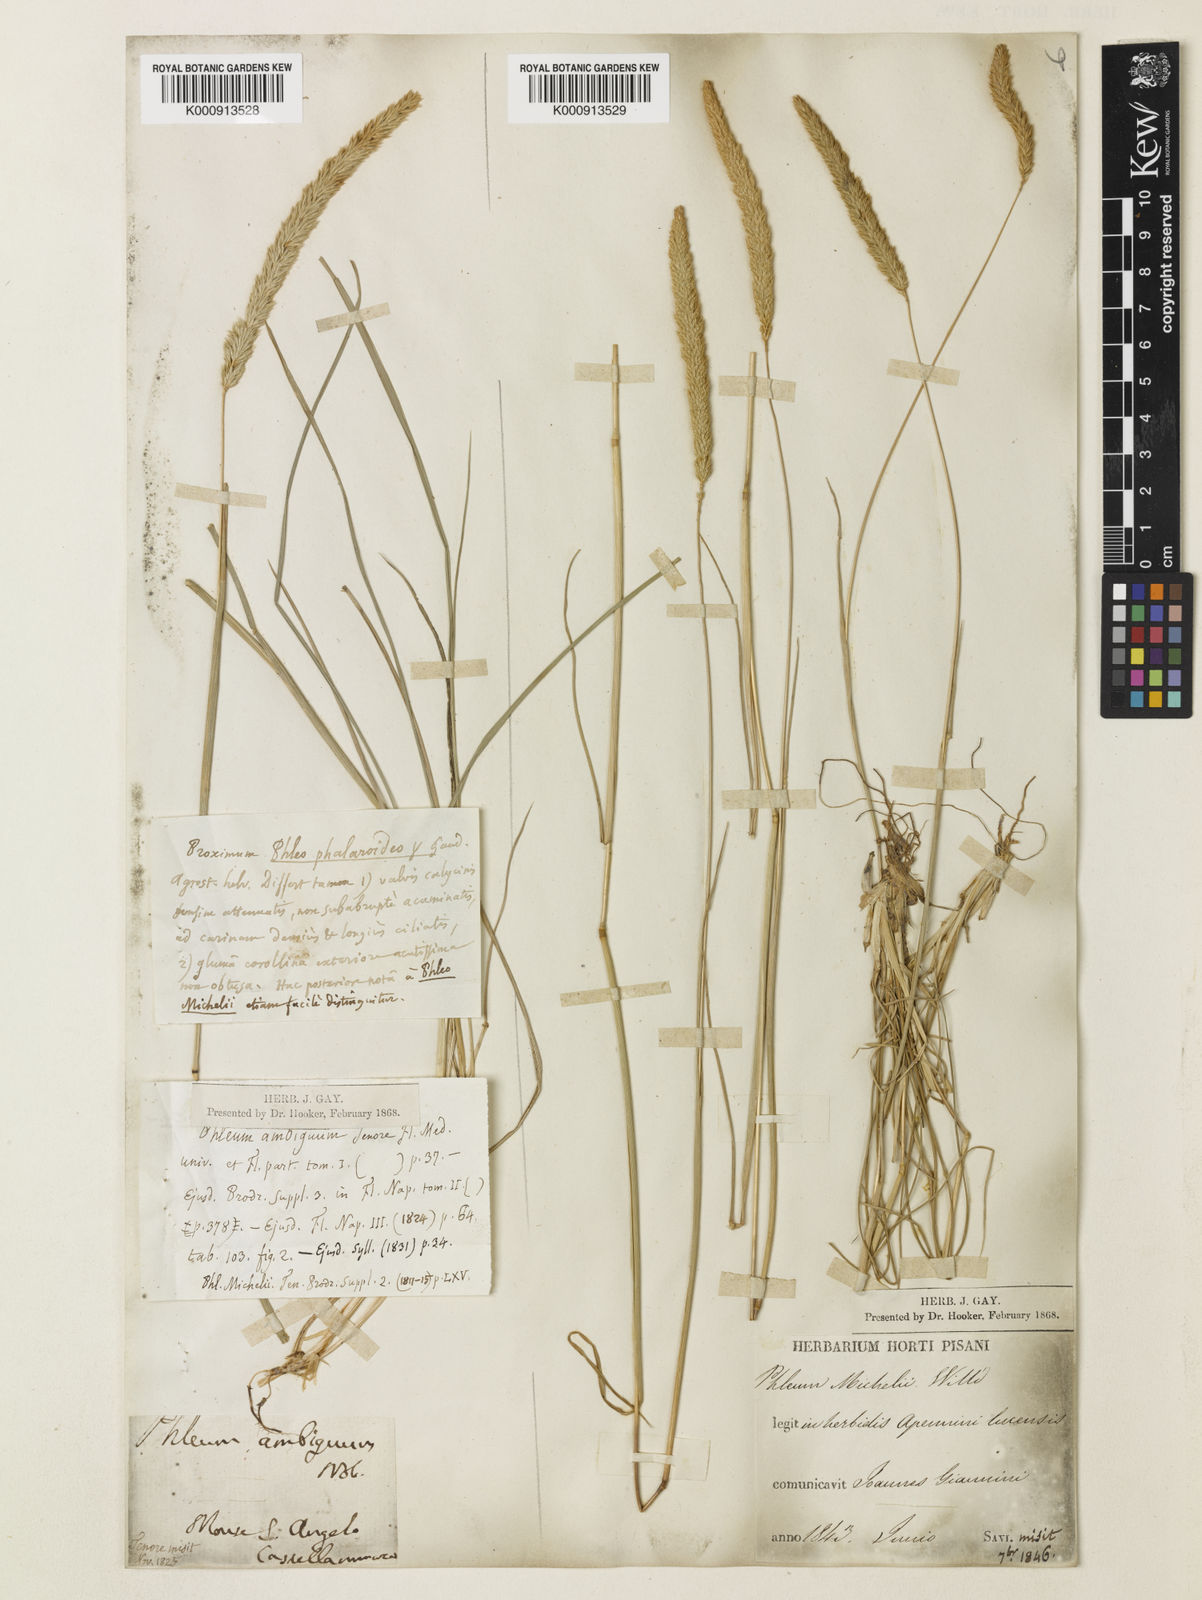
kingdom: Plantae
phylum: Tracheophyta
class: Liliopsida
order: Poales
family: Poaceae
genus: Phleum
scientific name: Phleum hirsutum
